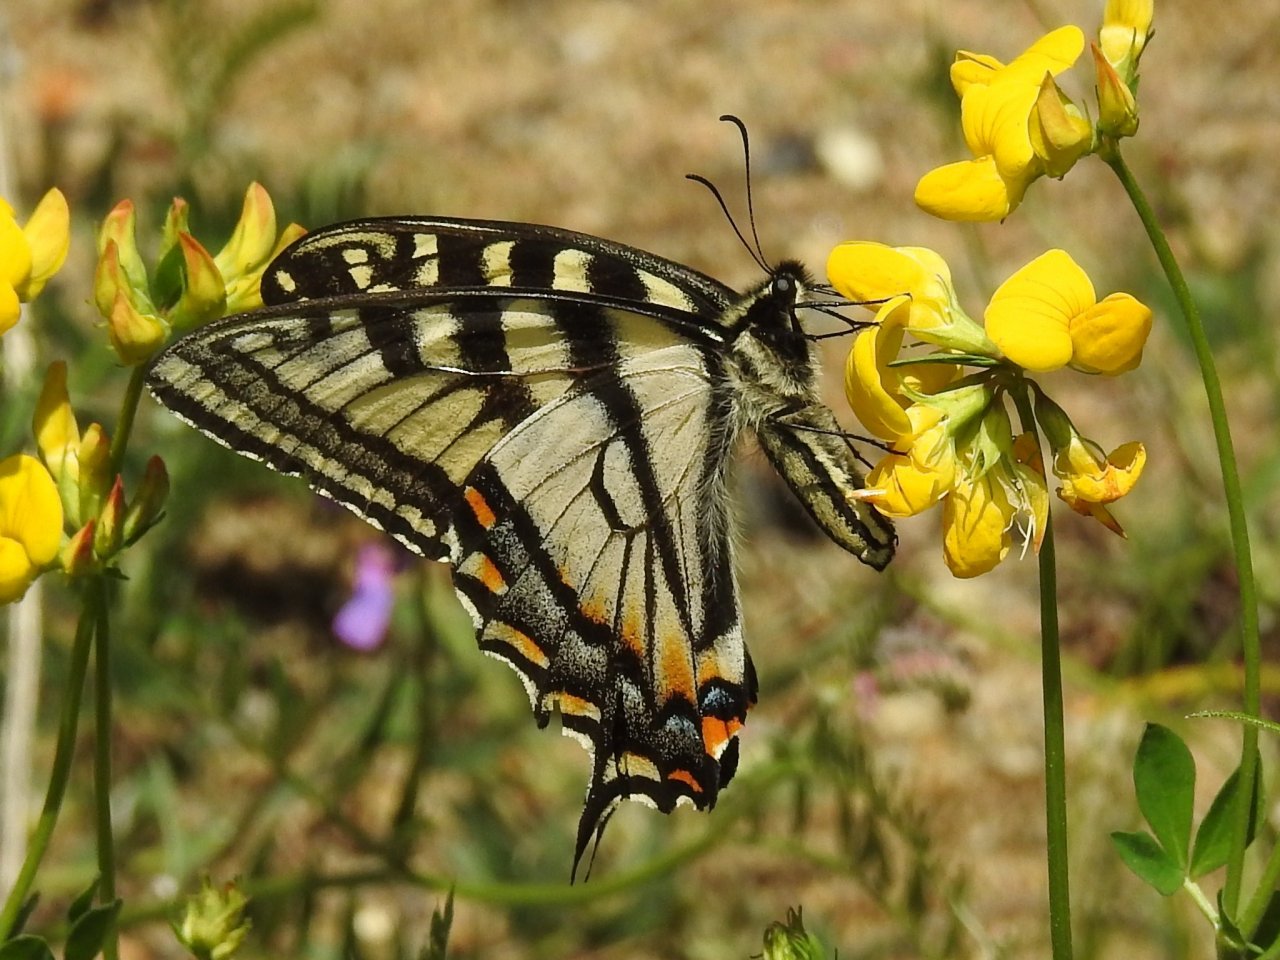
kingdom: Animalia
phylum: Arthropoda
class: Insecta
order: Lepidoptera
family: Papilionidae
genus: Pterourus
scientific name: Pterourus canadensis
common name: Canadian Tiger Swallowtail
